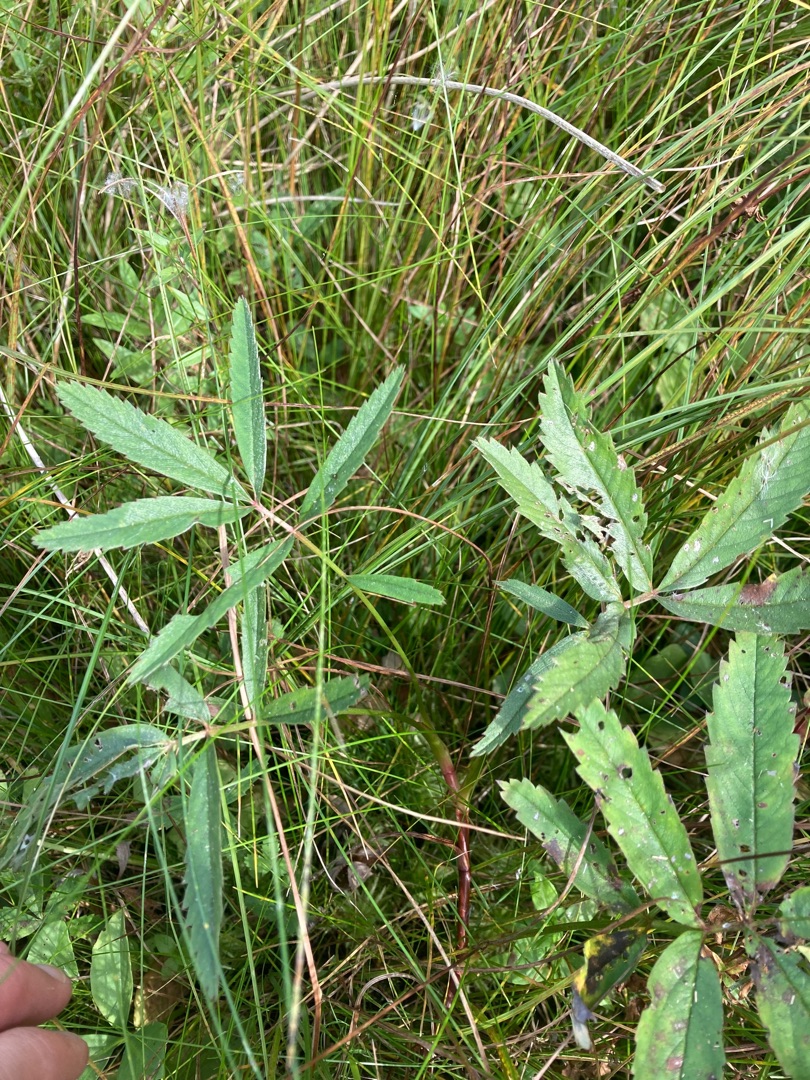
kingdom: Plantae
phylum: Tracheophyta
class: Magnoliopsida
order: Rosales
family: Rosaceae
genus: Comarum
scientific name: Comarum palustre
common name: Kragefod
